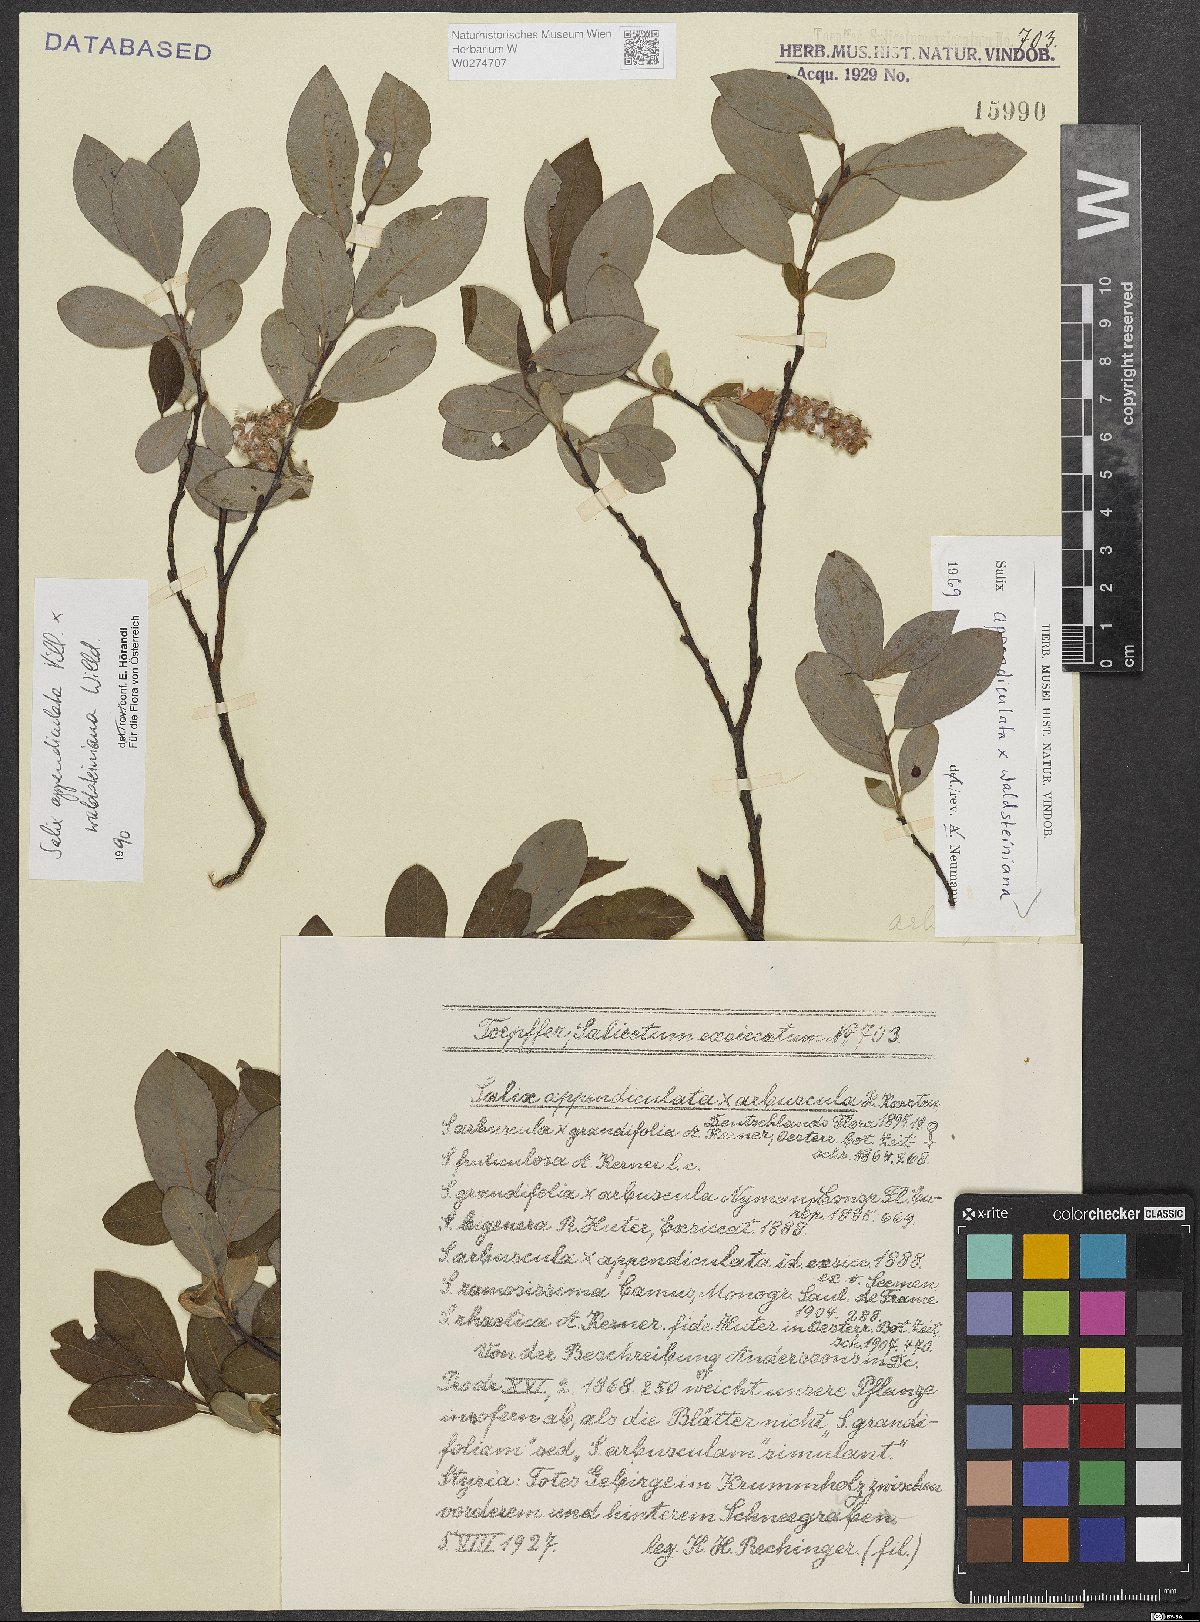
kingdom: Plantae
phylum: Tracheophyta
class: Magnoliopsida
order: Malpighiales
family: Salicaceae
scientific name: Salicaceae
